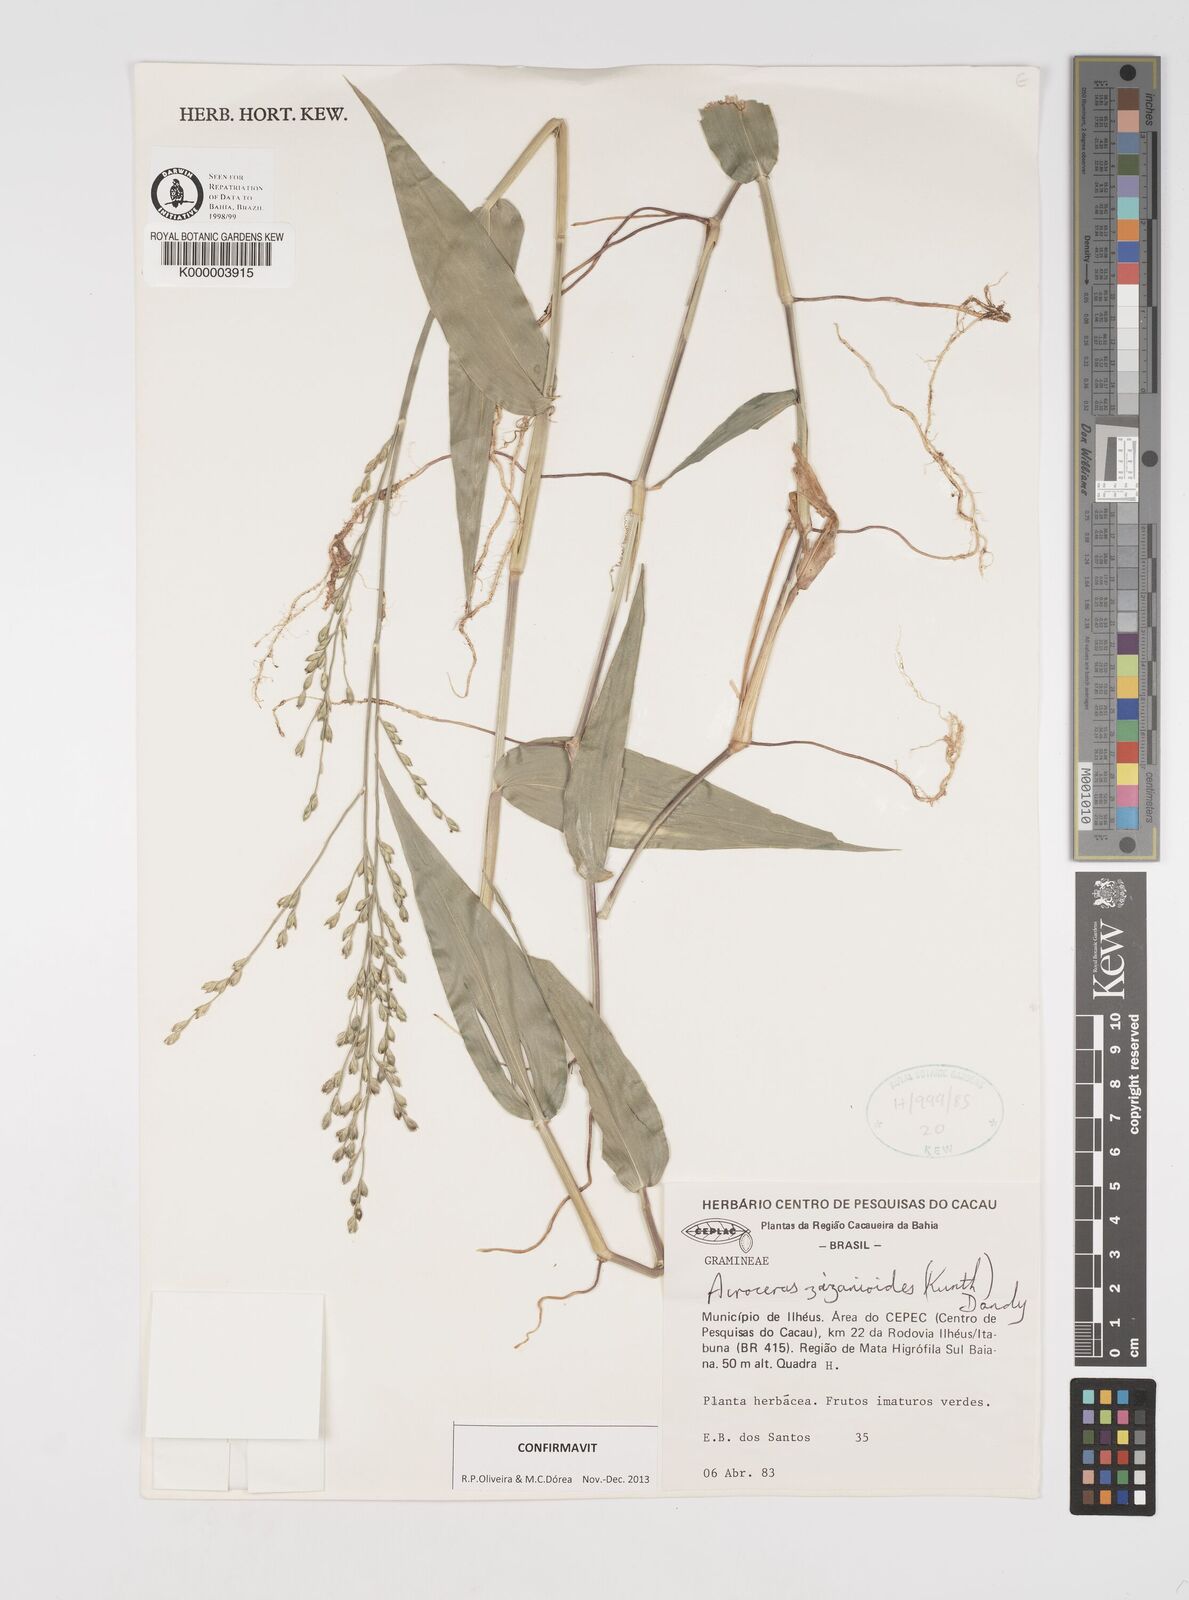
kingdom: Plantae
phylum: Tracheophyta
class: Liliopsida
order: Poales
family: Poaceae
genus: Acroceras
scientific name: Acroceras zizanioides
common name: Oat grass
